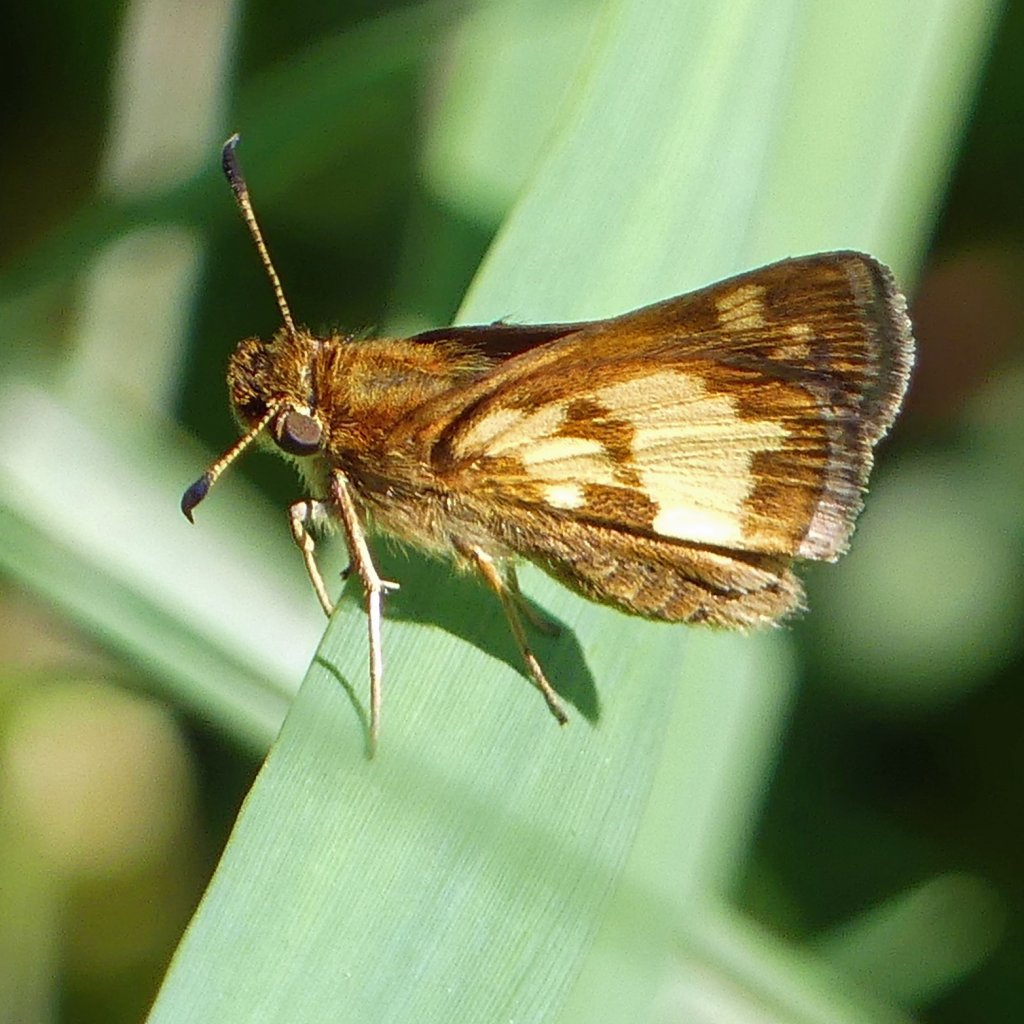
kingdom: Animalia
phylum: Arthropoda
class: Insecta
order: Lepidoptera
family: Hesperiidae
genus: Polites
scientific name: Polites coras
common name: Peck's Skipper
